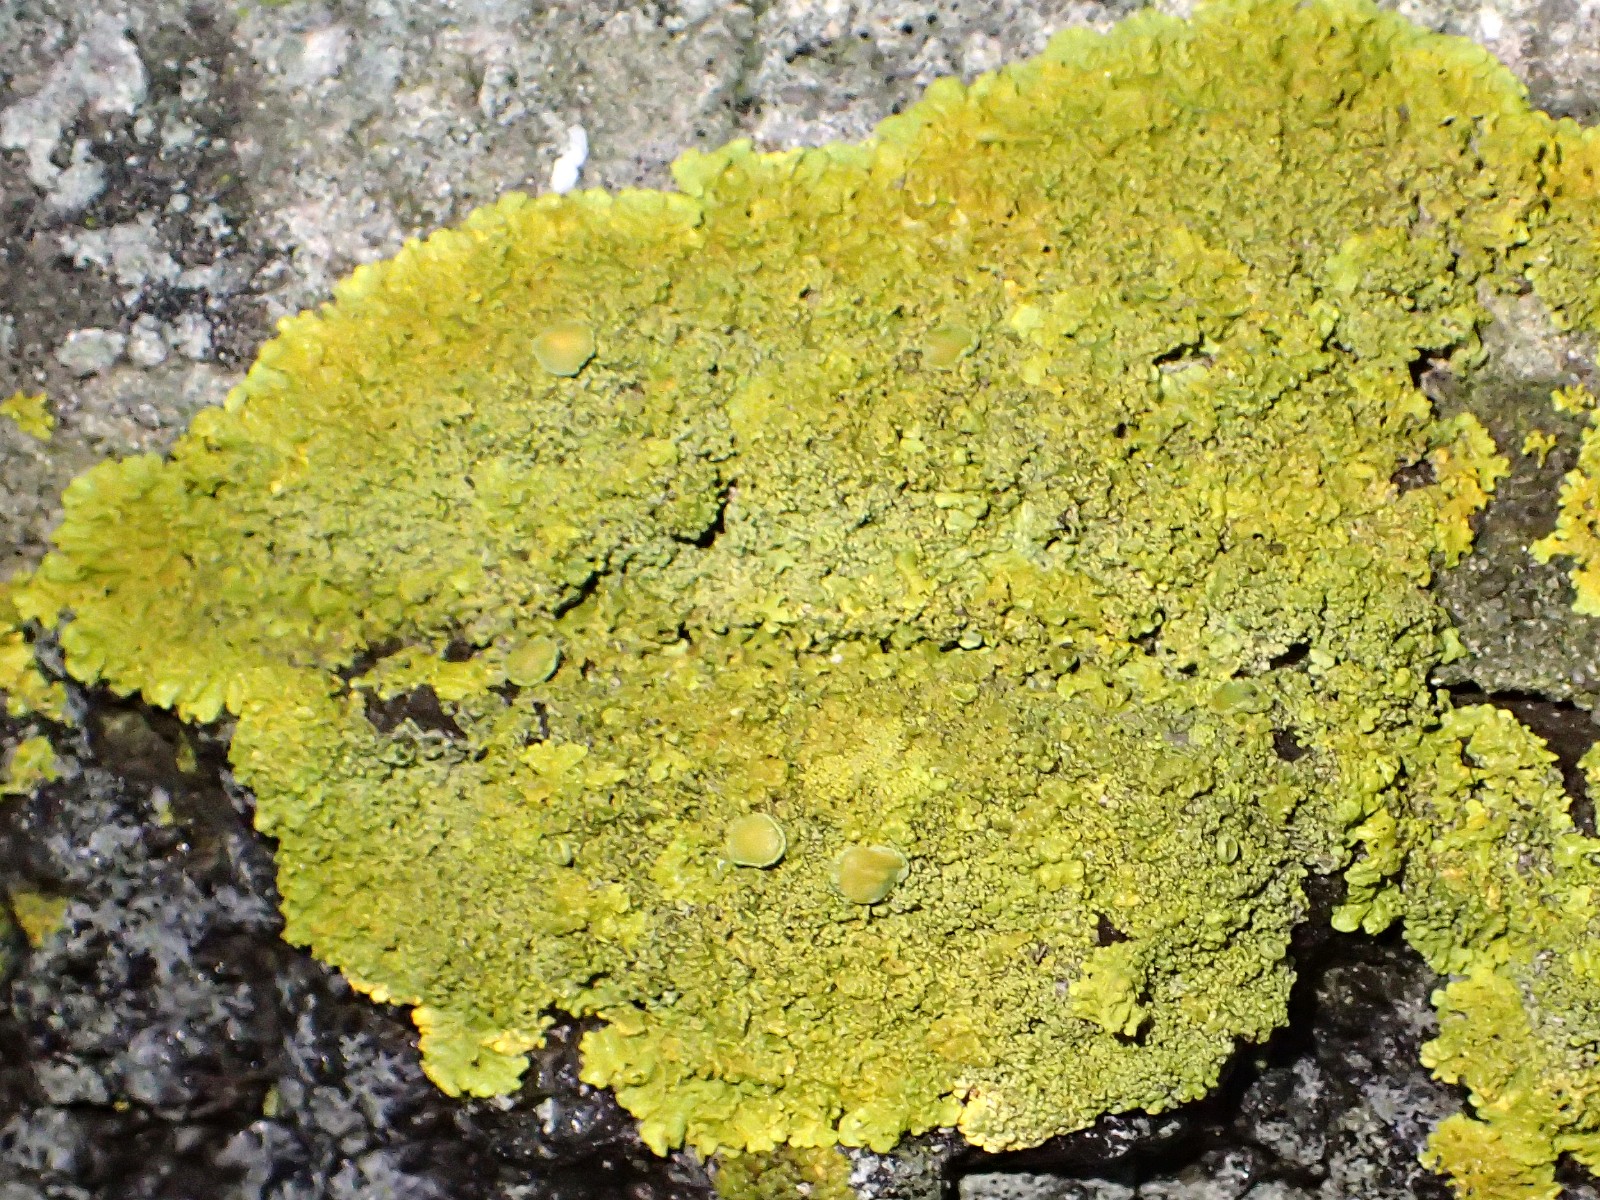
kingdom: Fungi
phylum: Ascomycota
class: Lecanoromycetes
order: Teloschistales
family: Teloschistaceae
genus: Xanthoria
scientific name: Xanthoria calcicola
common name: vortet væggelav
